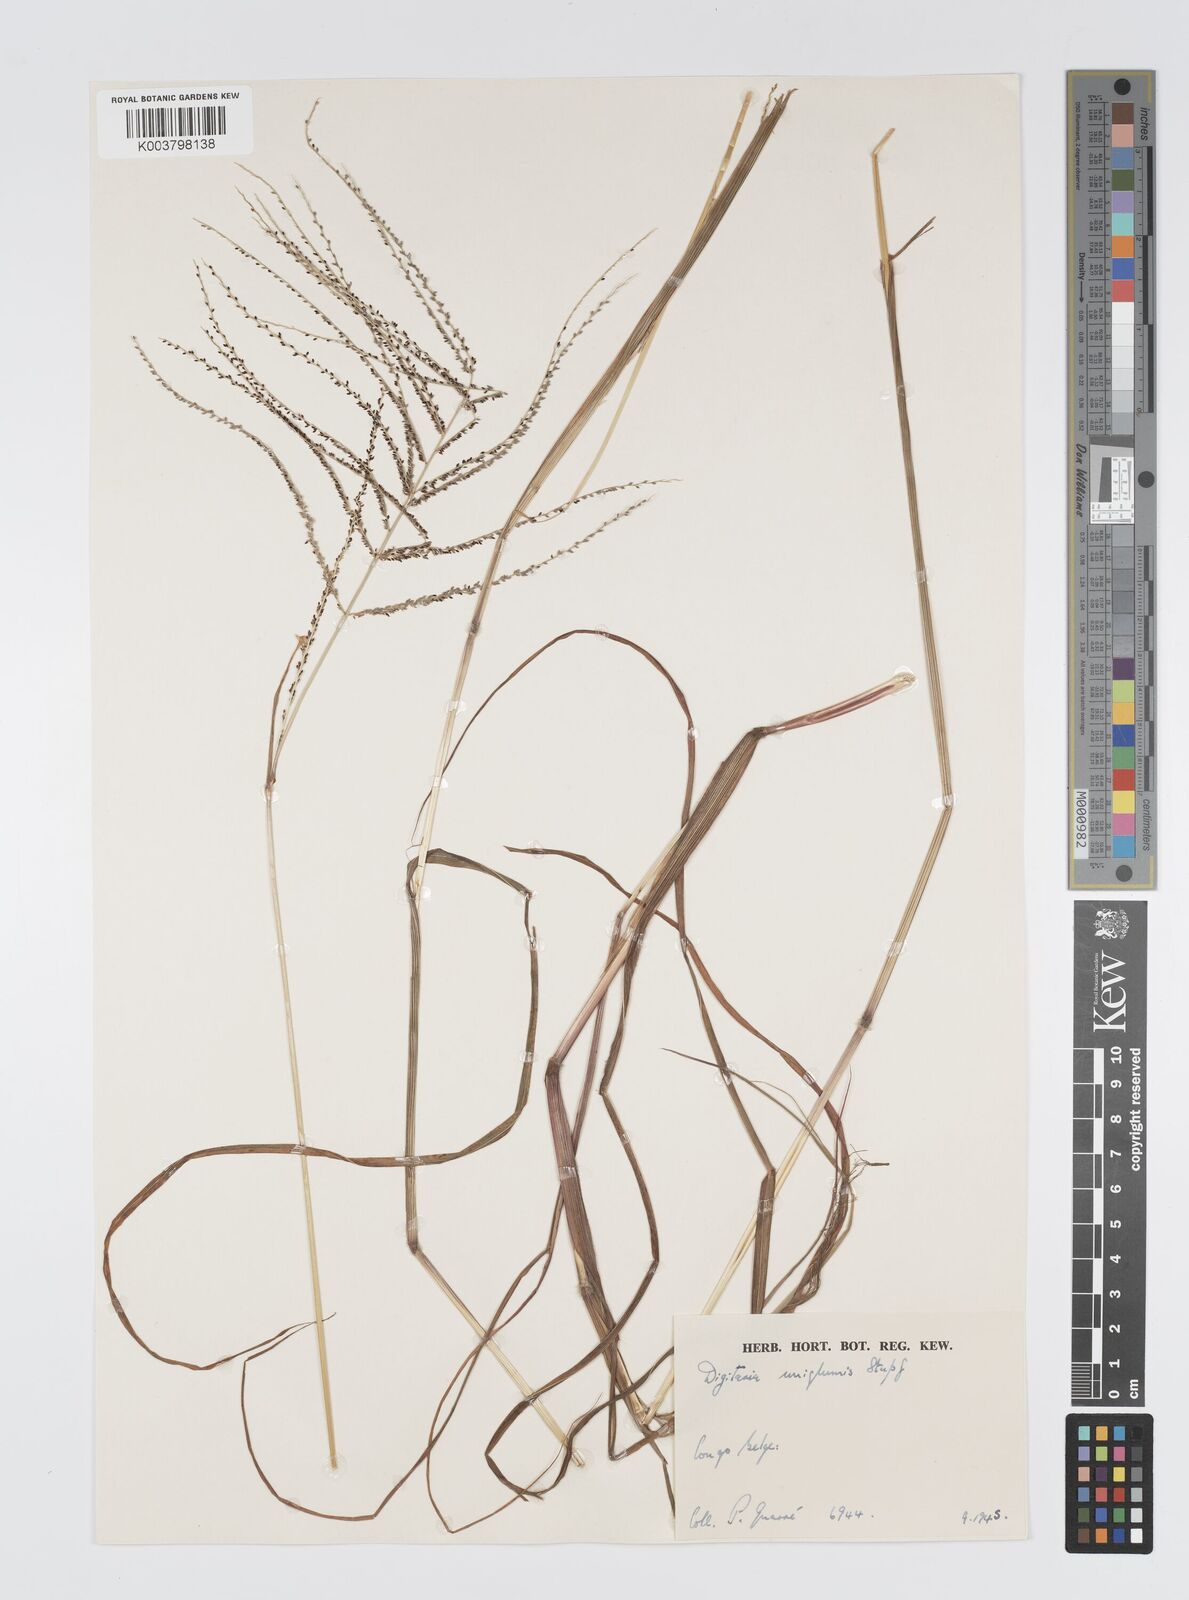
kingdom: Plantae
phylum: Tracheophyta
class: Liliopsida
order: Poales
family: Poaceae
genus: Digitaria
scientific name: Digitaria pseudodiagonalis
